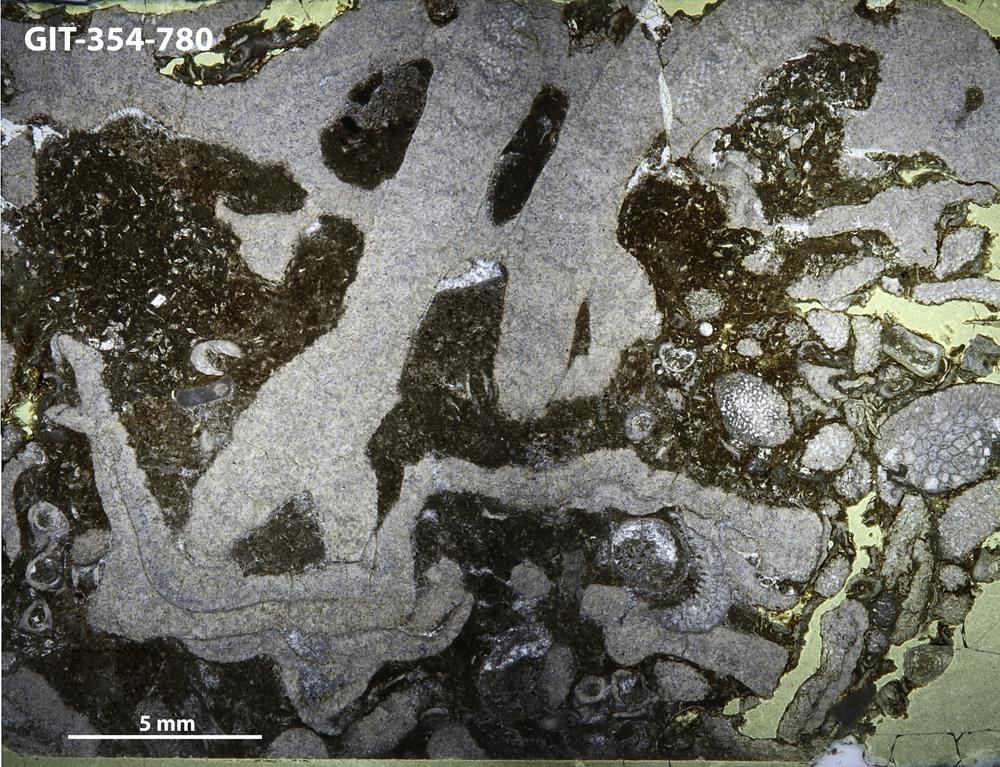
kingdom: Animalia
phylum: Nemertea
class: Hoplonemertea
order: Monostilifera
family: Amphiporidae
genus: Clathrodictyella
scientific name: Clathrodictyella
